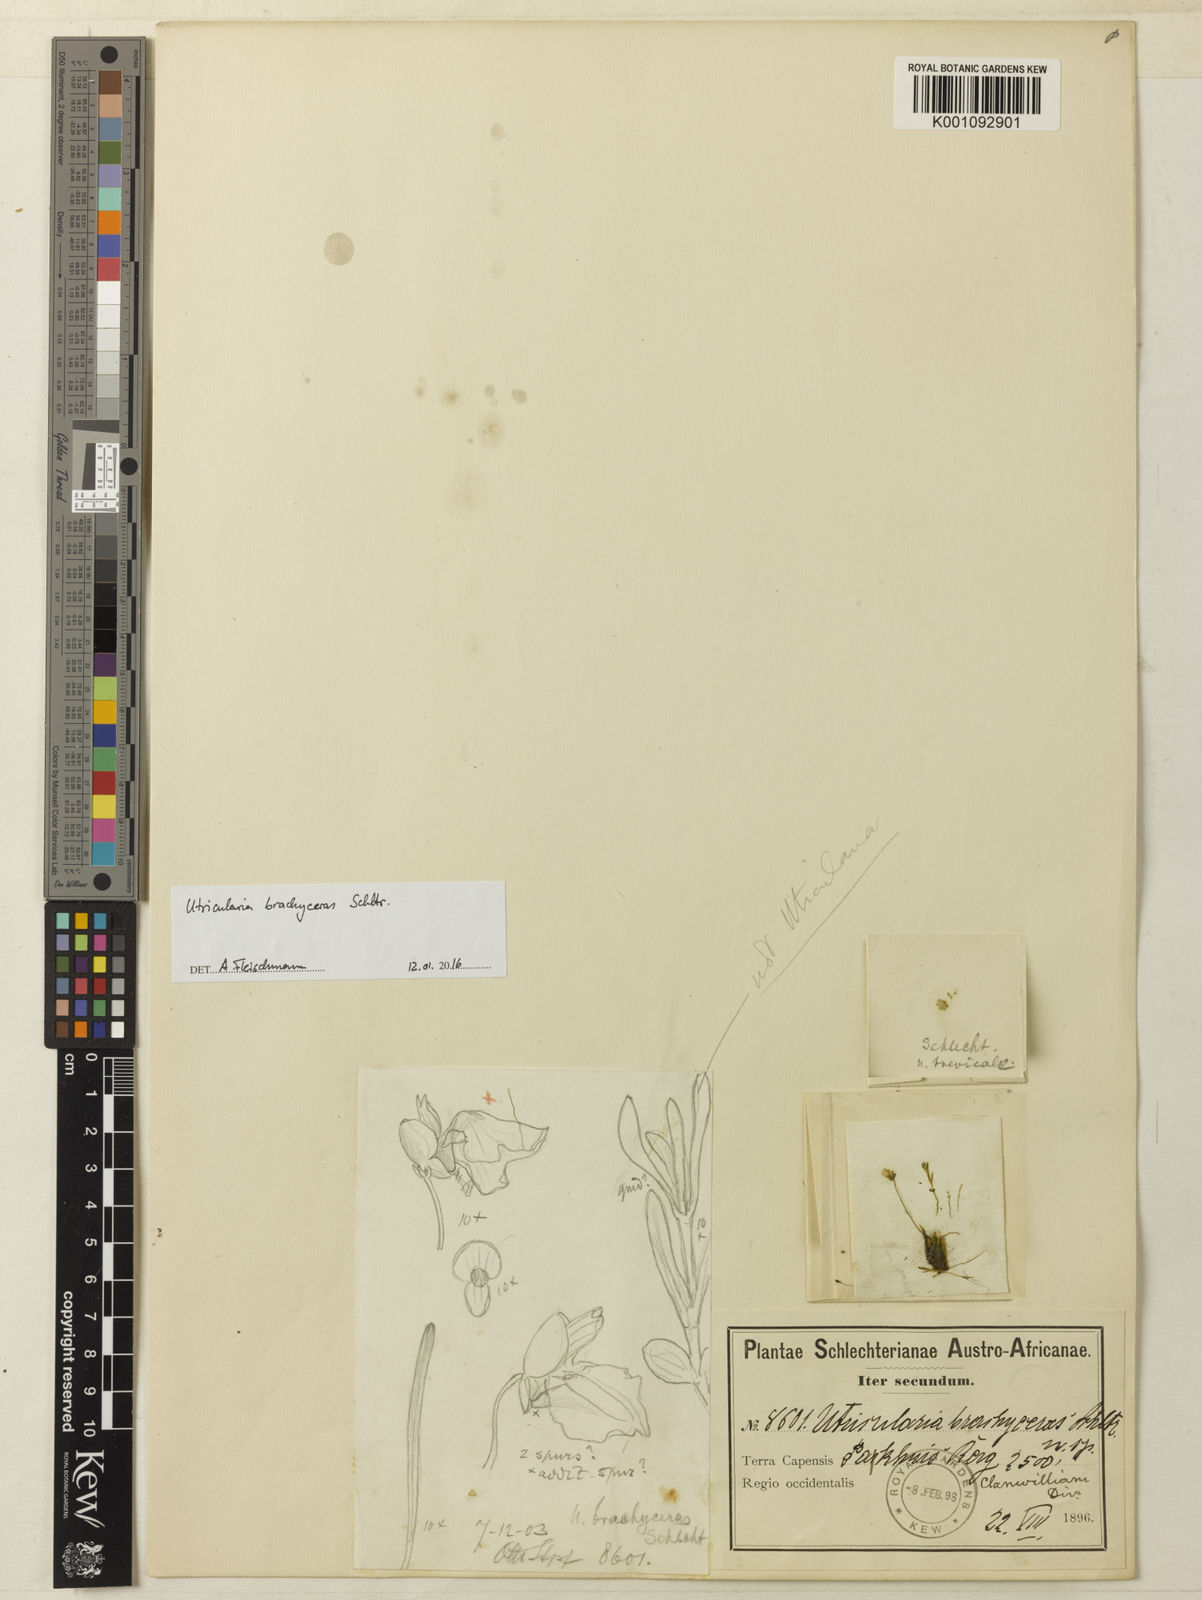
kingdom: Plantae
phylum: Tracheophyta
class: Magnoliopsida
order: Lamiales
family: Lentibulariaceae
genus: Utricularia
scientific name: Utricularia bisquamata
